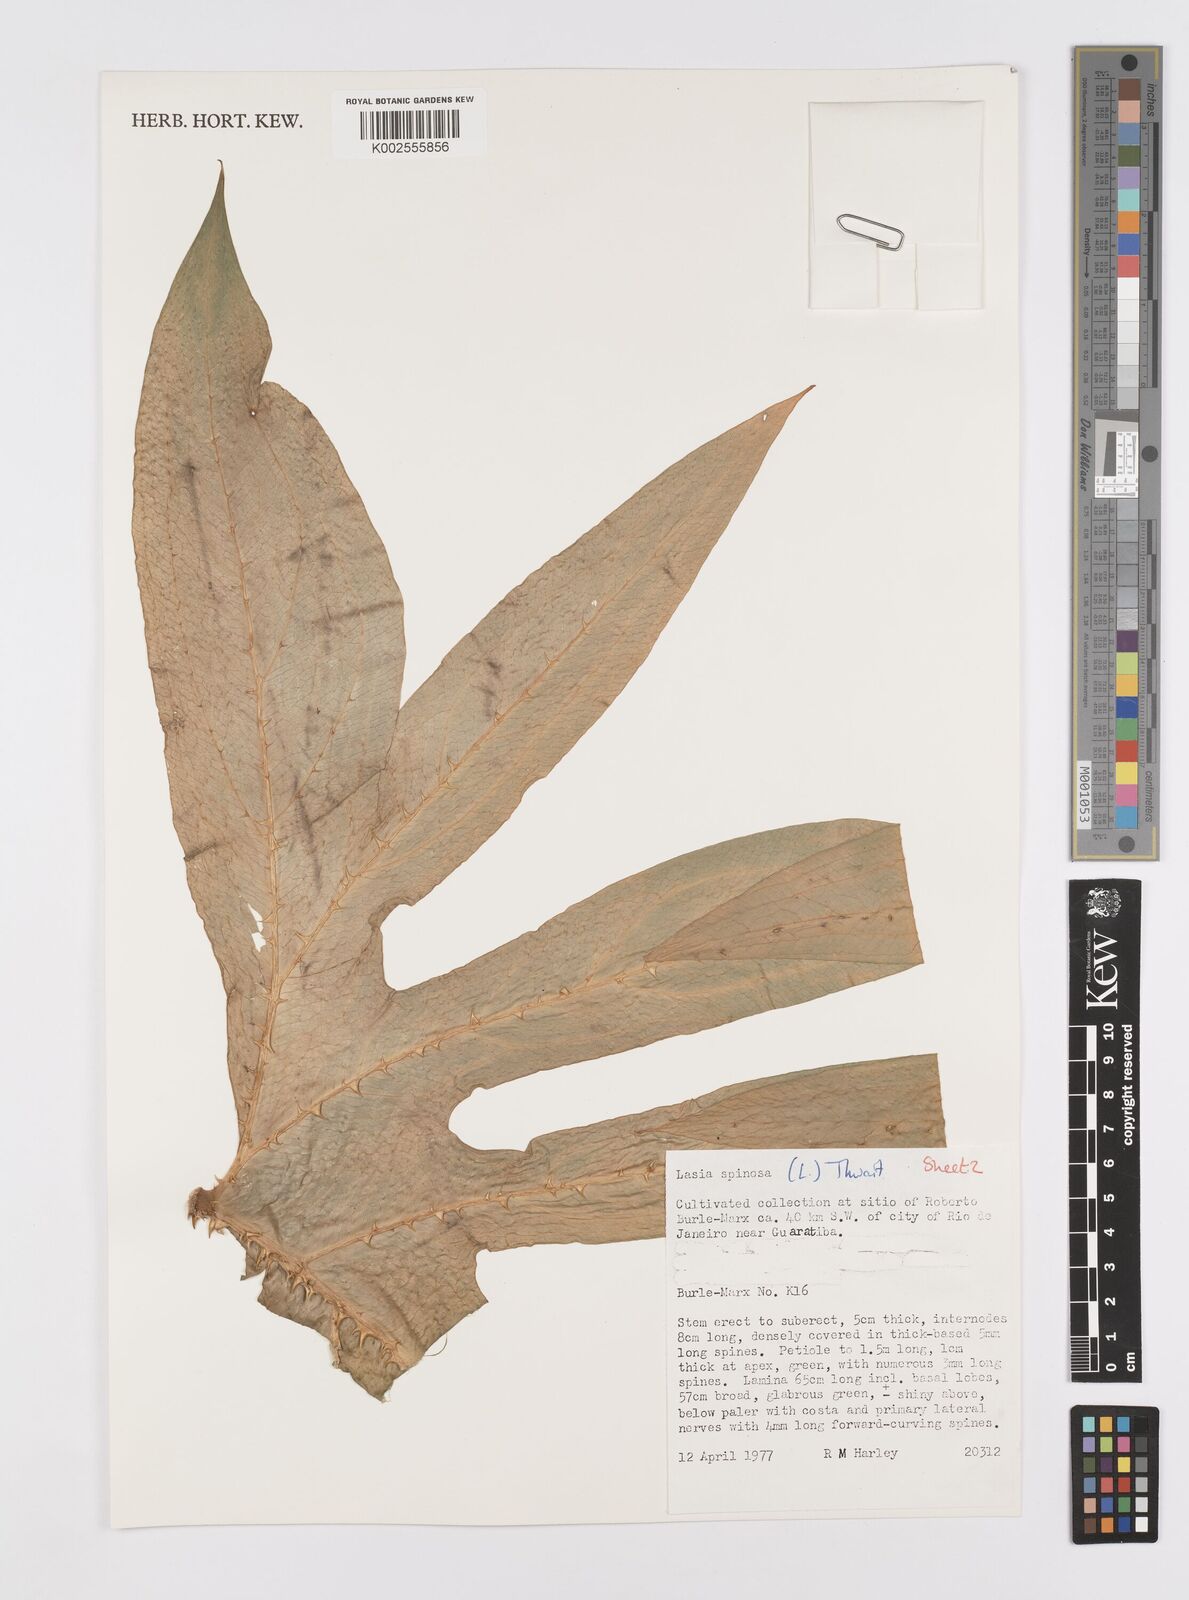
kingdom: Plantae
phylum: Tracheophyta
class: Liliopsida
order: Alismatales
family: Araceae
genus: Lasia
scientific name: Lasia spinosa
